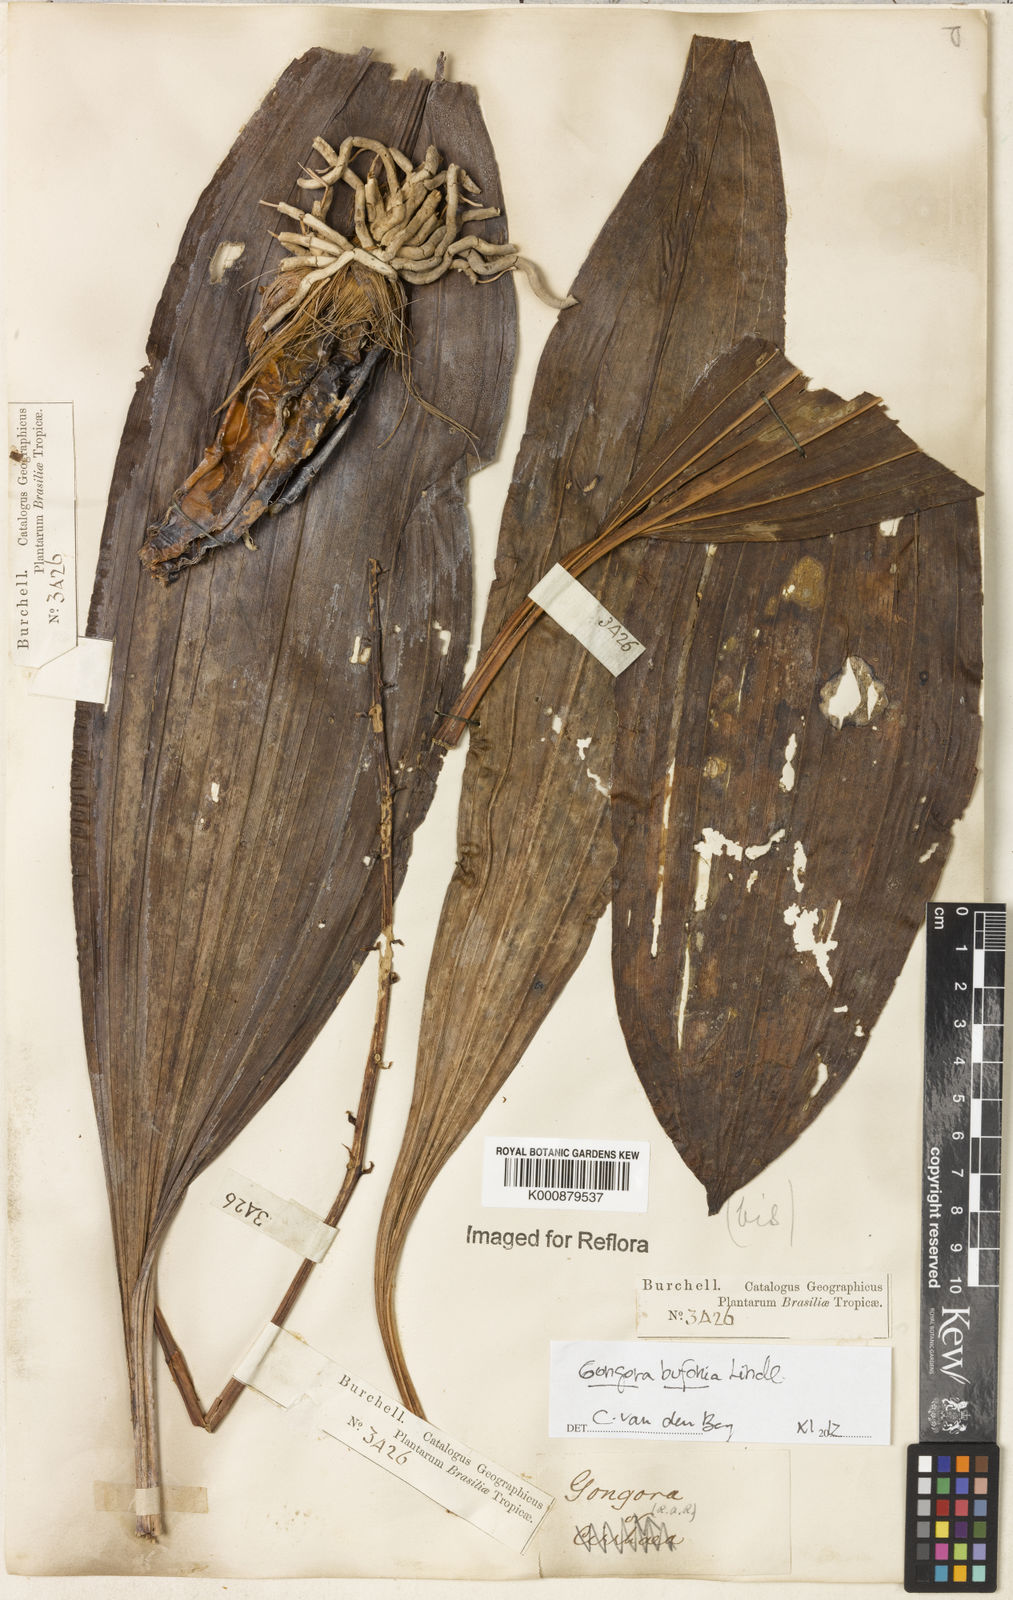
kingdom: Plantae
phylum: Tracheophyta
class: Liliopsida
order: Asparagales
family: Orchidaceae
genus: Gongora
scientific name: Gongora bufonia
